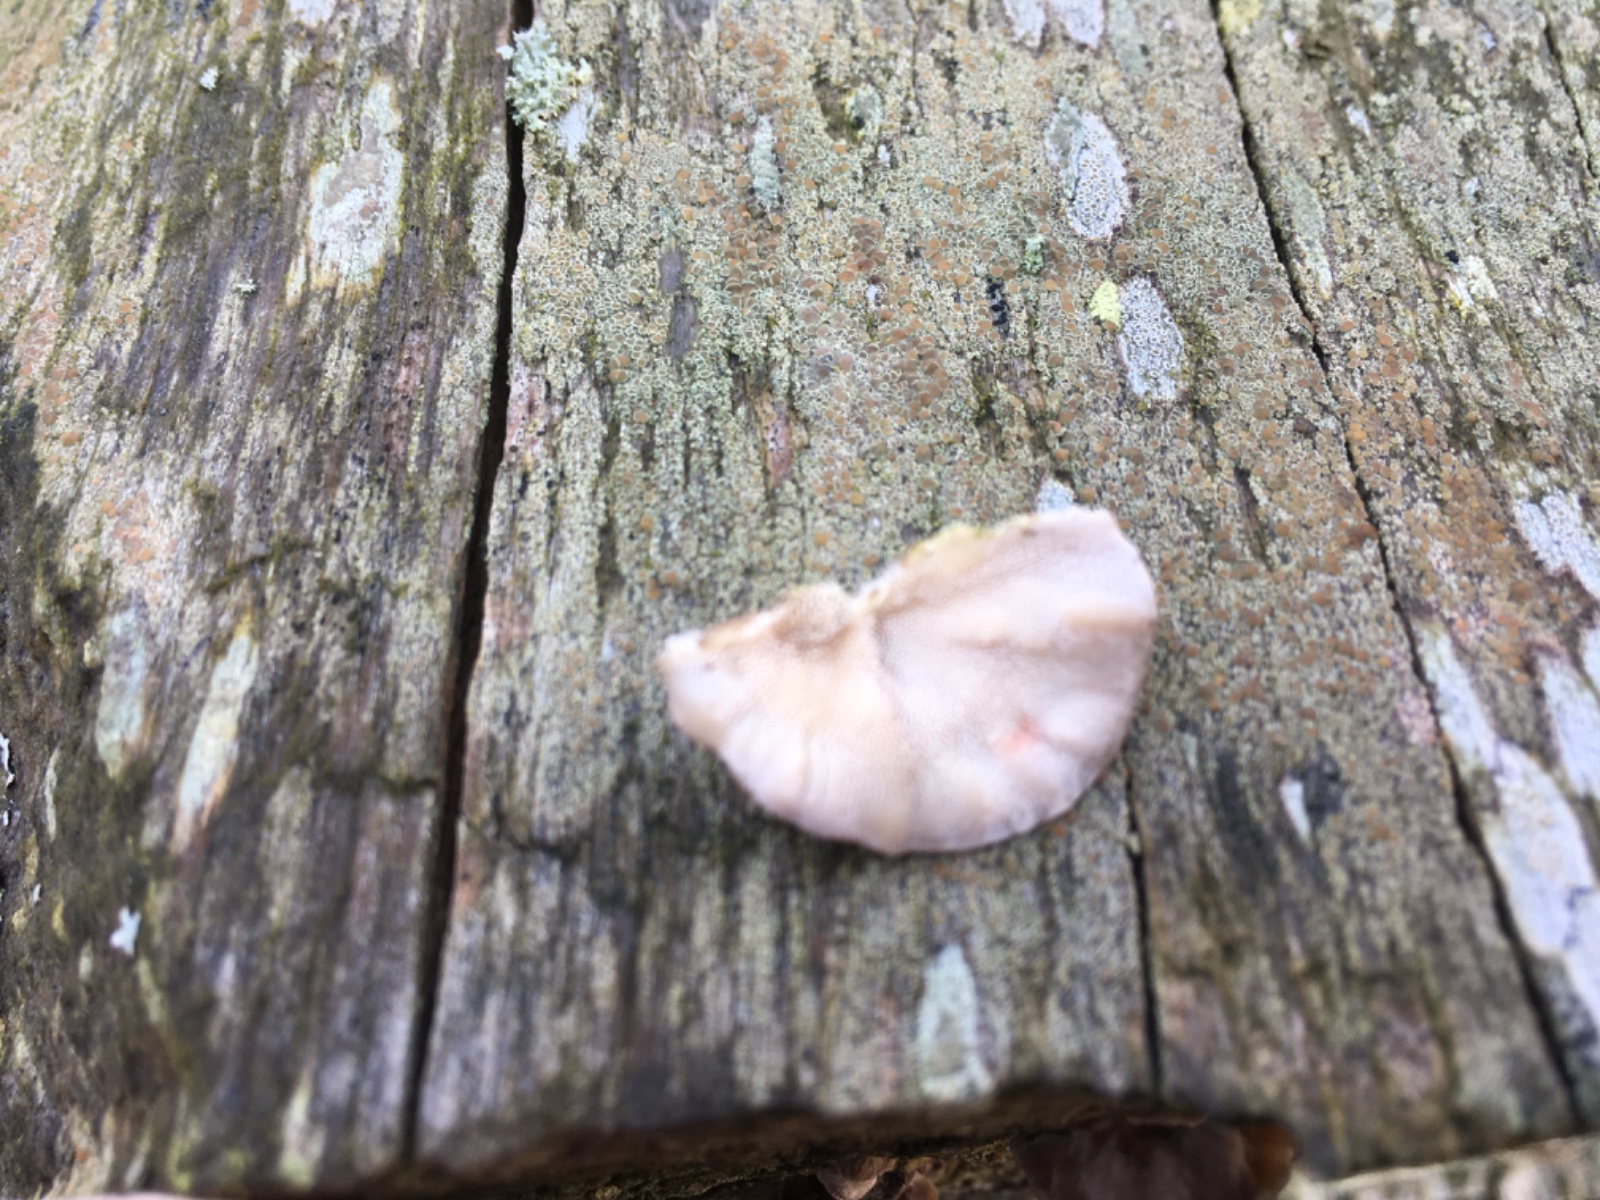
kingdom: Fungi
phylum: Basidiomycota
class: Agaricomycetes
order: Polyporales
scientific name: Polyporales
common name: poresvampordenen
